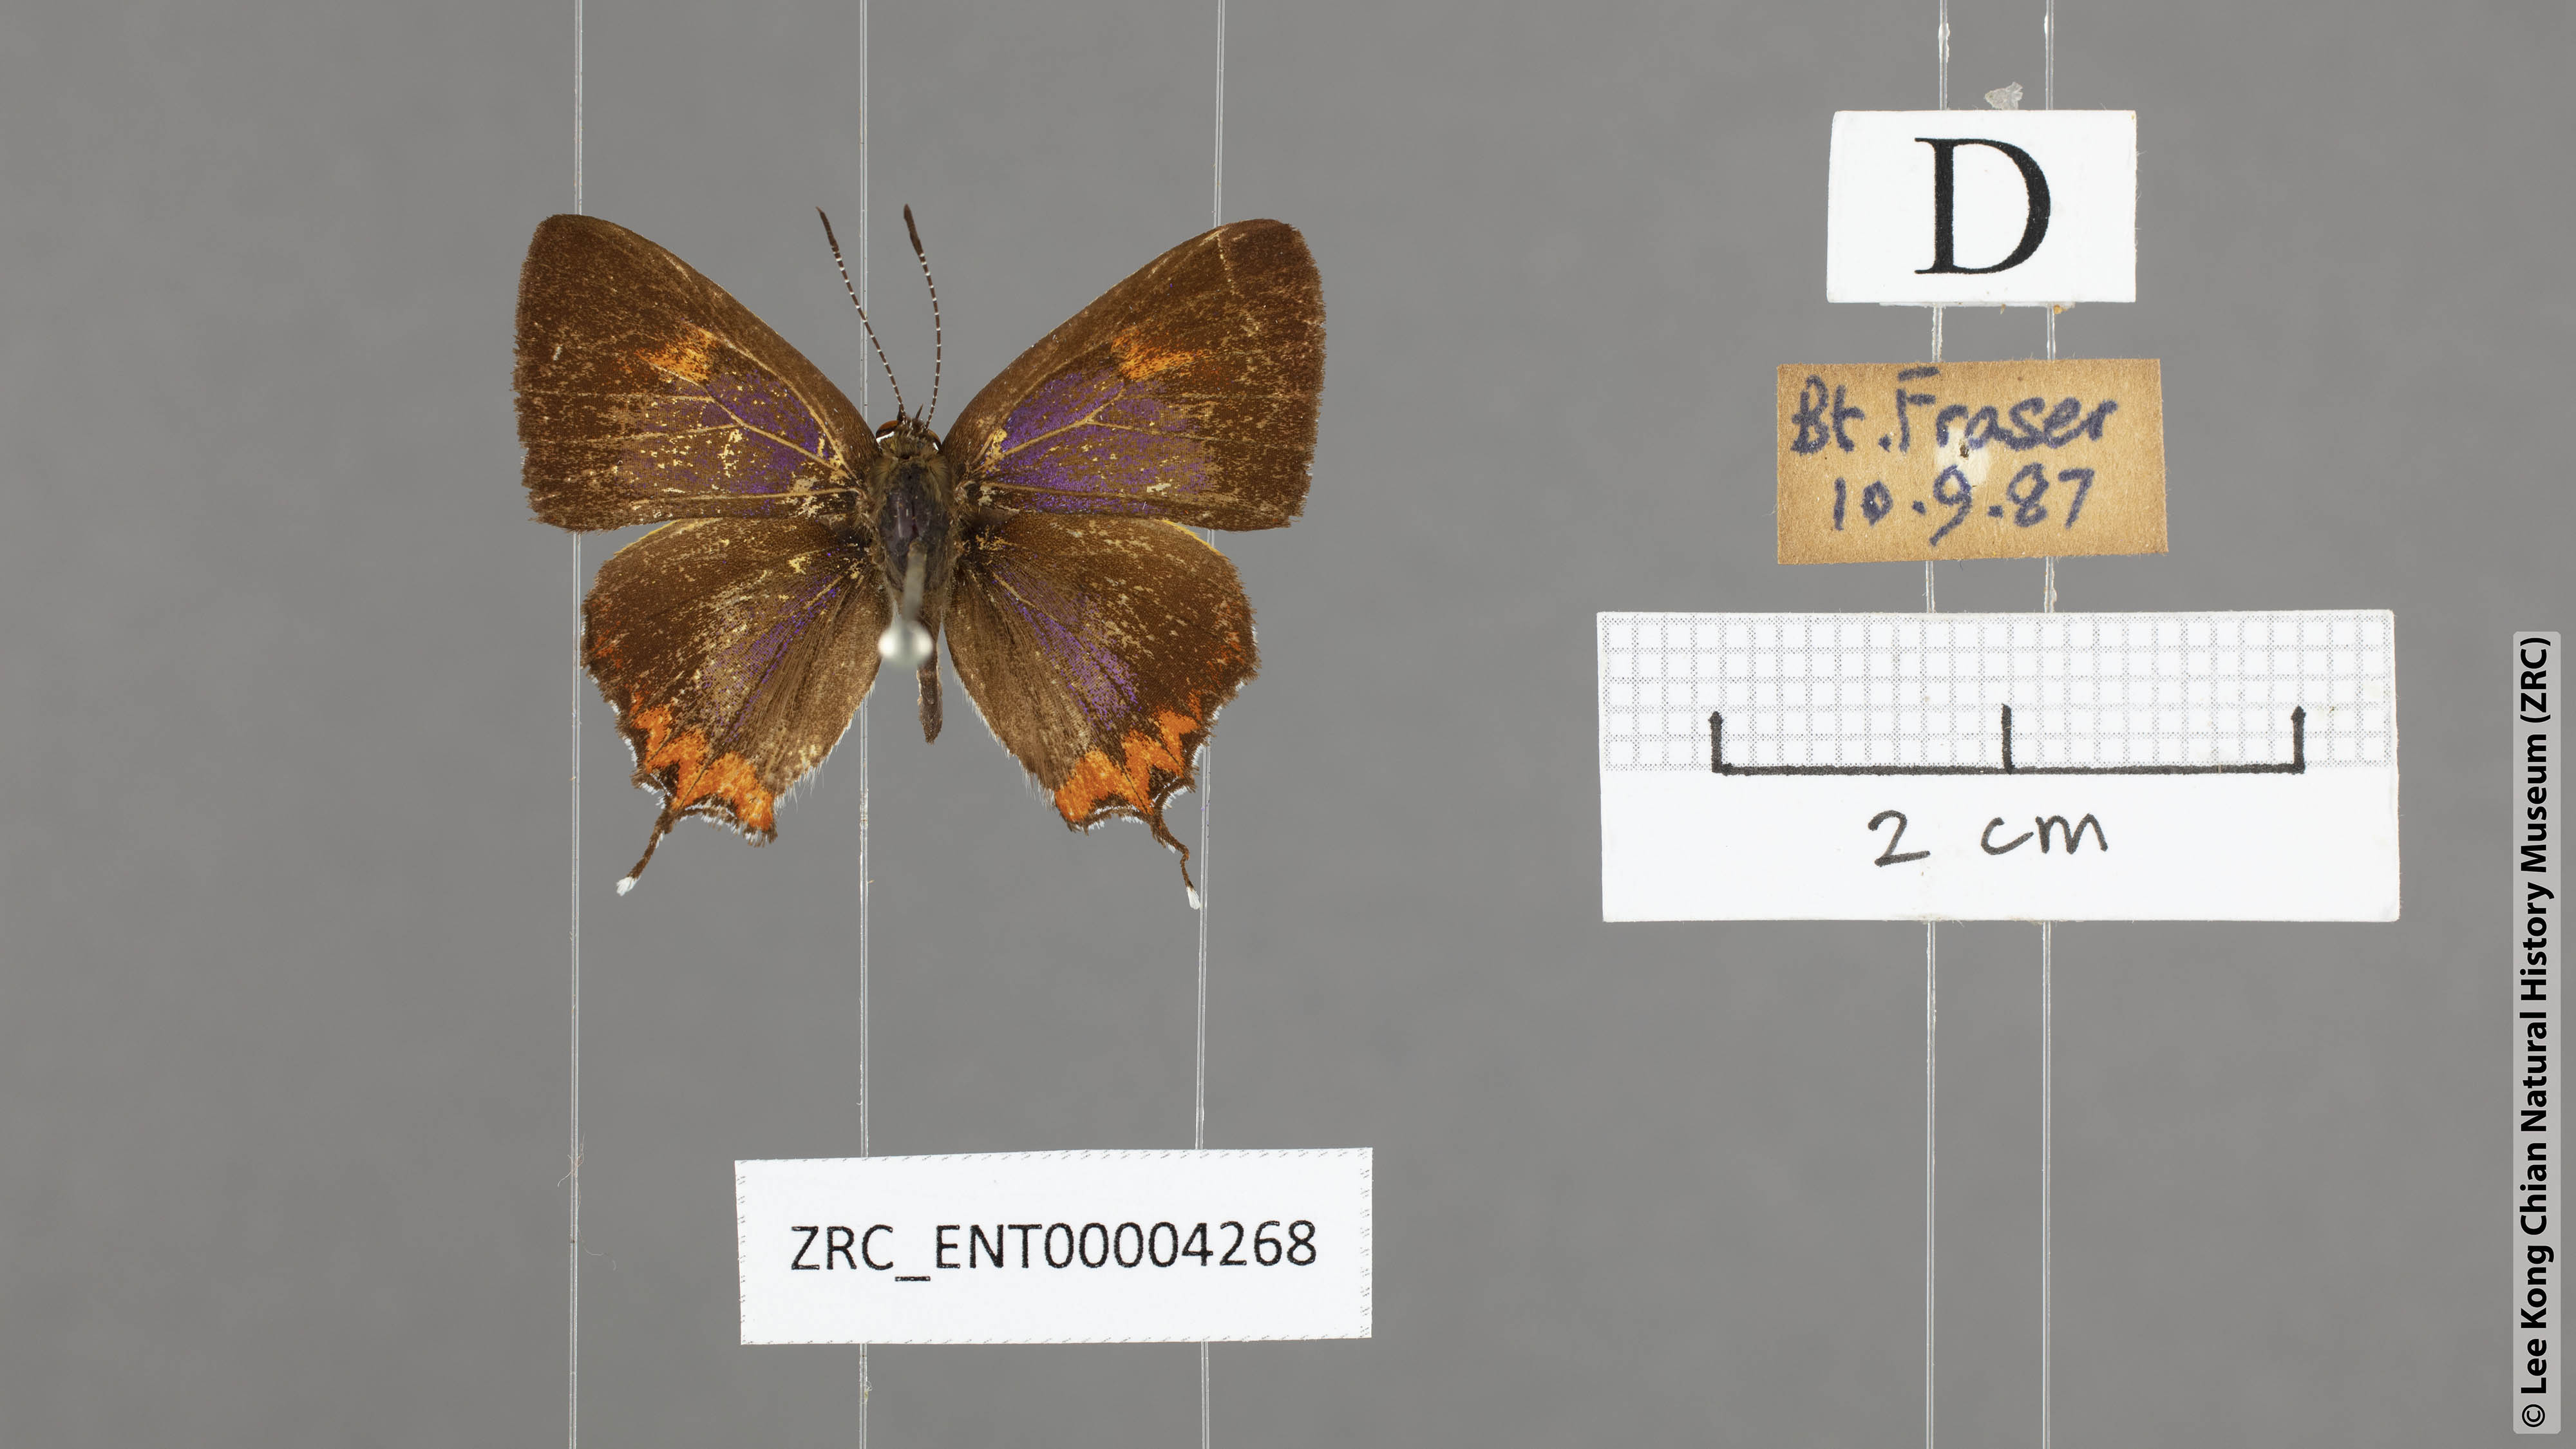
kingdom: Animalia
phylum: Arthropoda
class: Insecta
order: Lepidoptera
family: Lycaenidae
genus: Heliophorus
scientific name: Heliophorus epicles
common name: Purple sapphire
